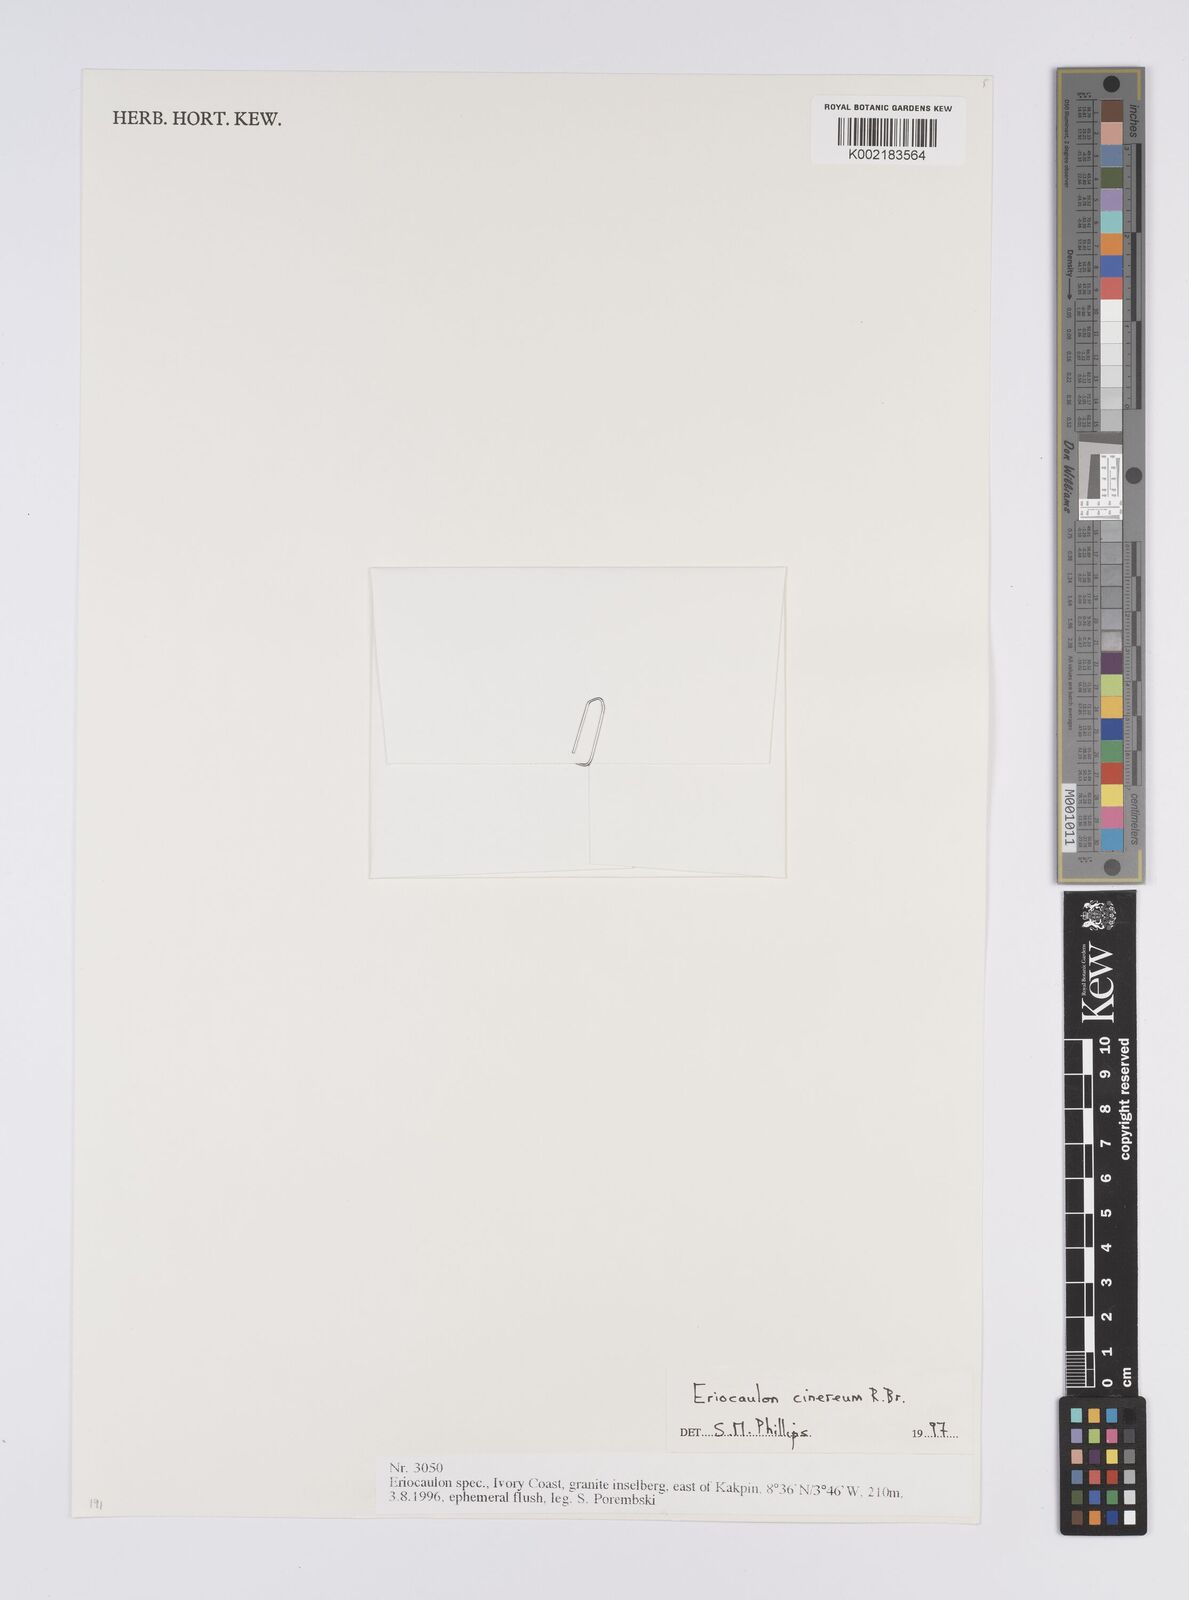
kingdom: Plantae
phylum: Tracheophyta
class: Liliopsida
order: Poales
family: Eriocaulaceae
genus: Eriocaulon
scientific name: Eriocaulon cinereum
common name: Ashy pipewort
